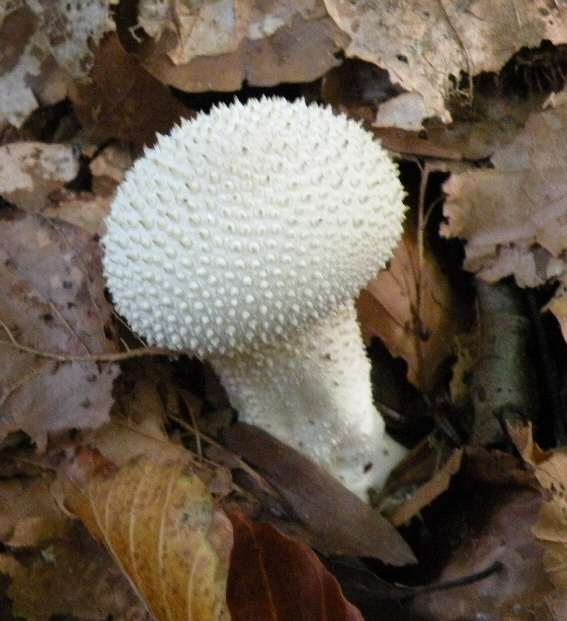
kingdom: Fungi
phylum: Basidiomycota
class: Agaricomycetes
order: Agaricales
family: Lycoperdaceae
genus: Lycoperdon
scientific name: Lycoperdon perlatum
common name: krystal-støvbold
